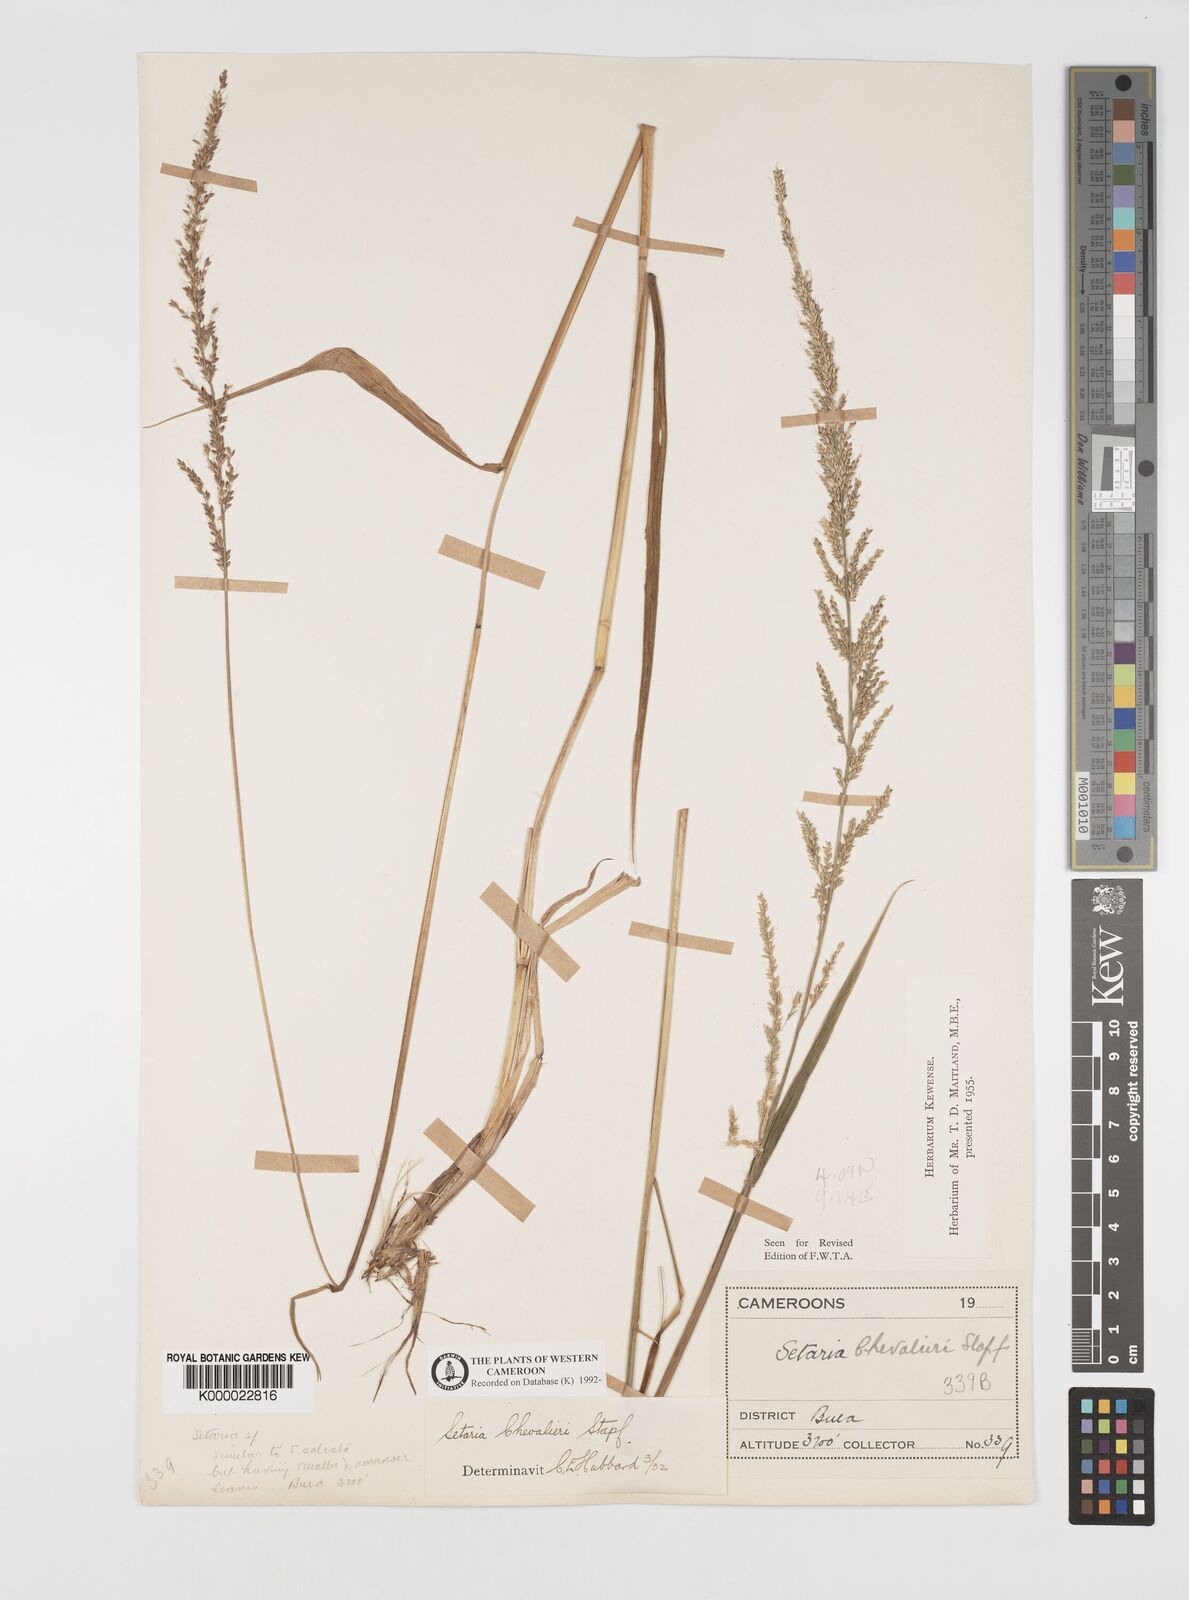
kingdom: Plantae
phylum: Tracheophyta
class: Liliopsida
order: Poales
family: Poaceae
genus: Setaria
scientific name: Setaria megaphylla
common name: Bigleaf bristlegrass
